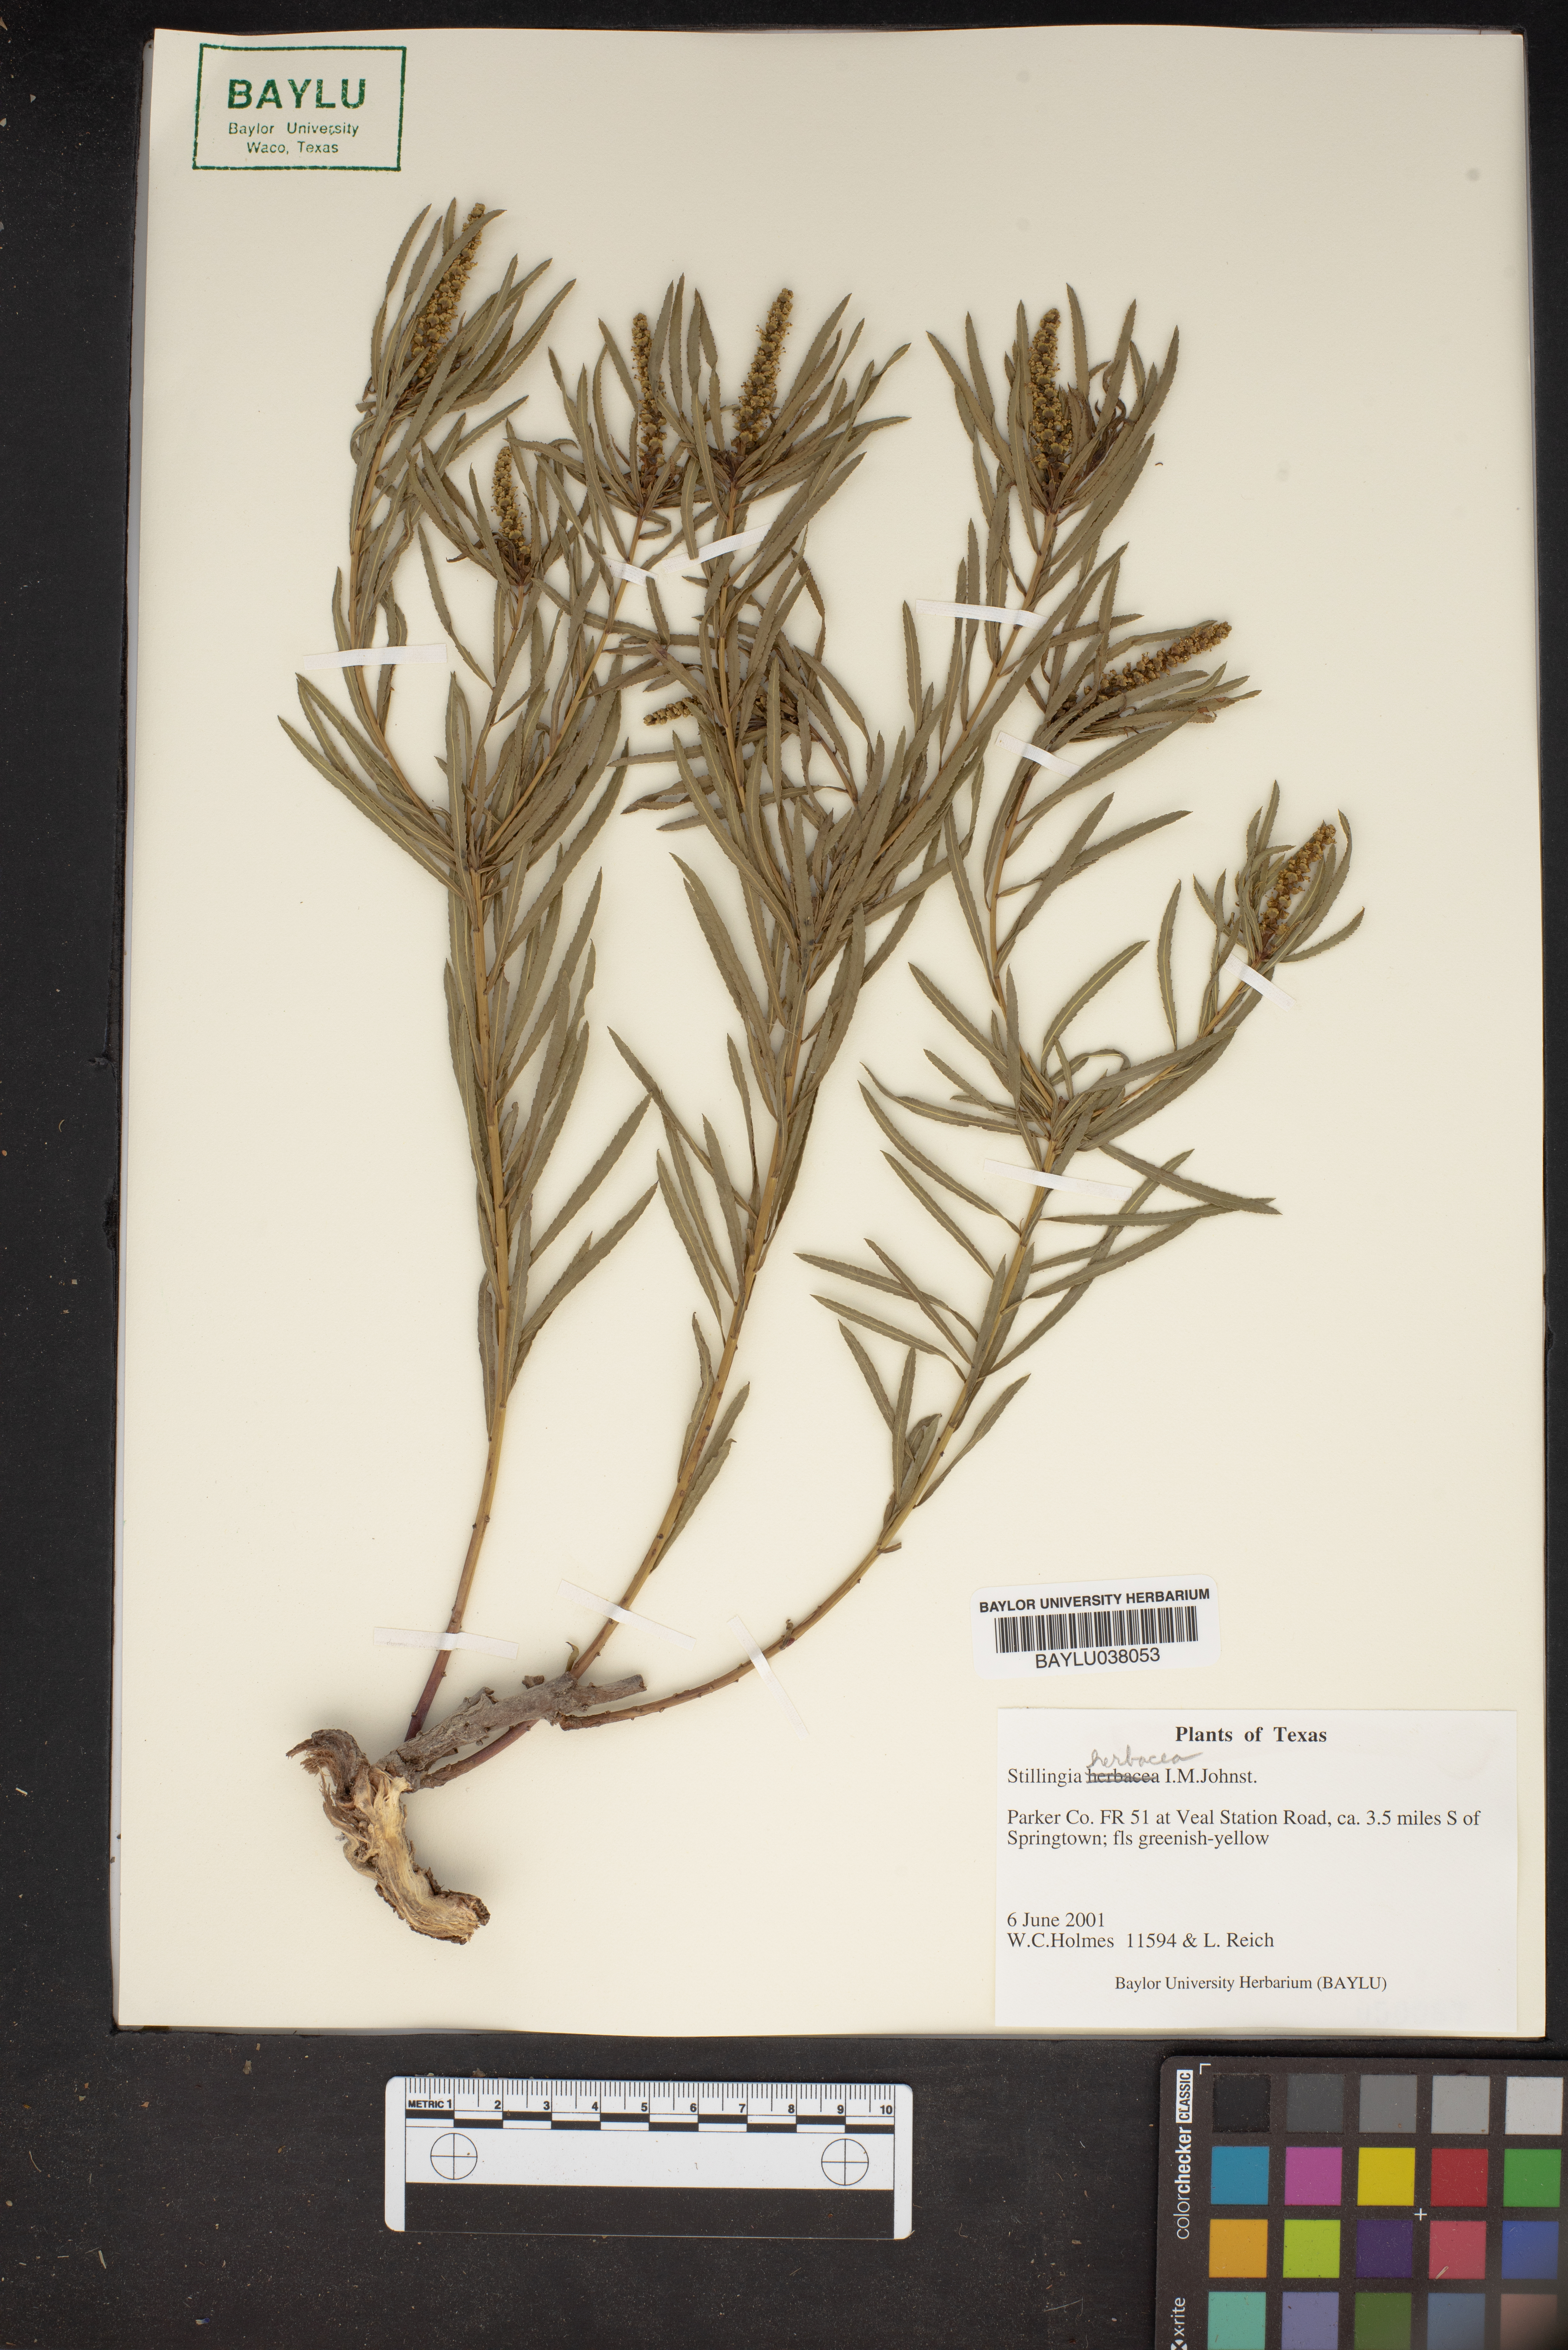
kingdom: Plantae
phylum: Tracheophyta
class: Magnoliopsida
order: Malpighiales
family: Euphorbiaceae
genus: Stillingia
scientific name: Stillingia
